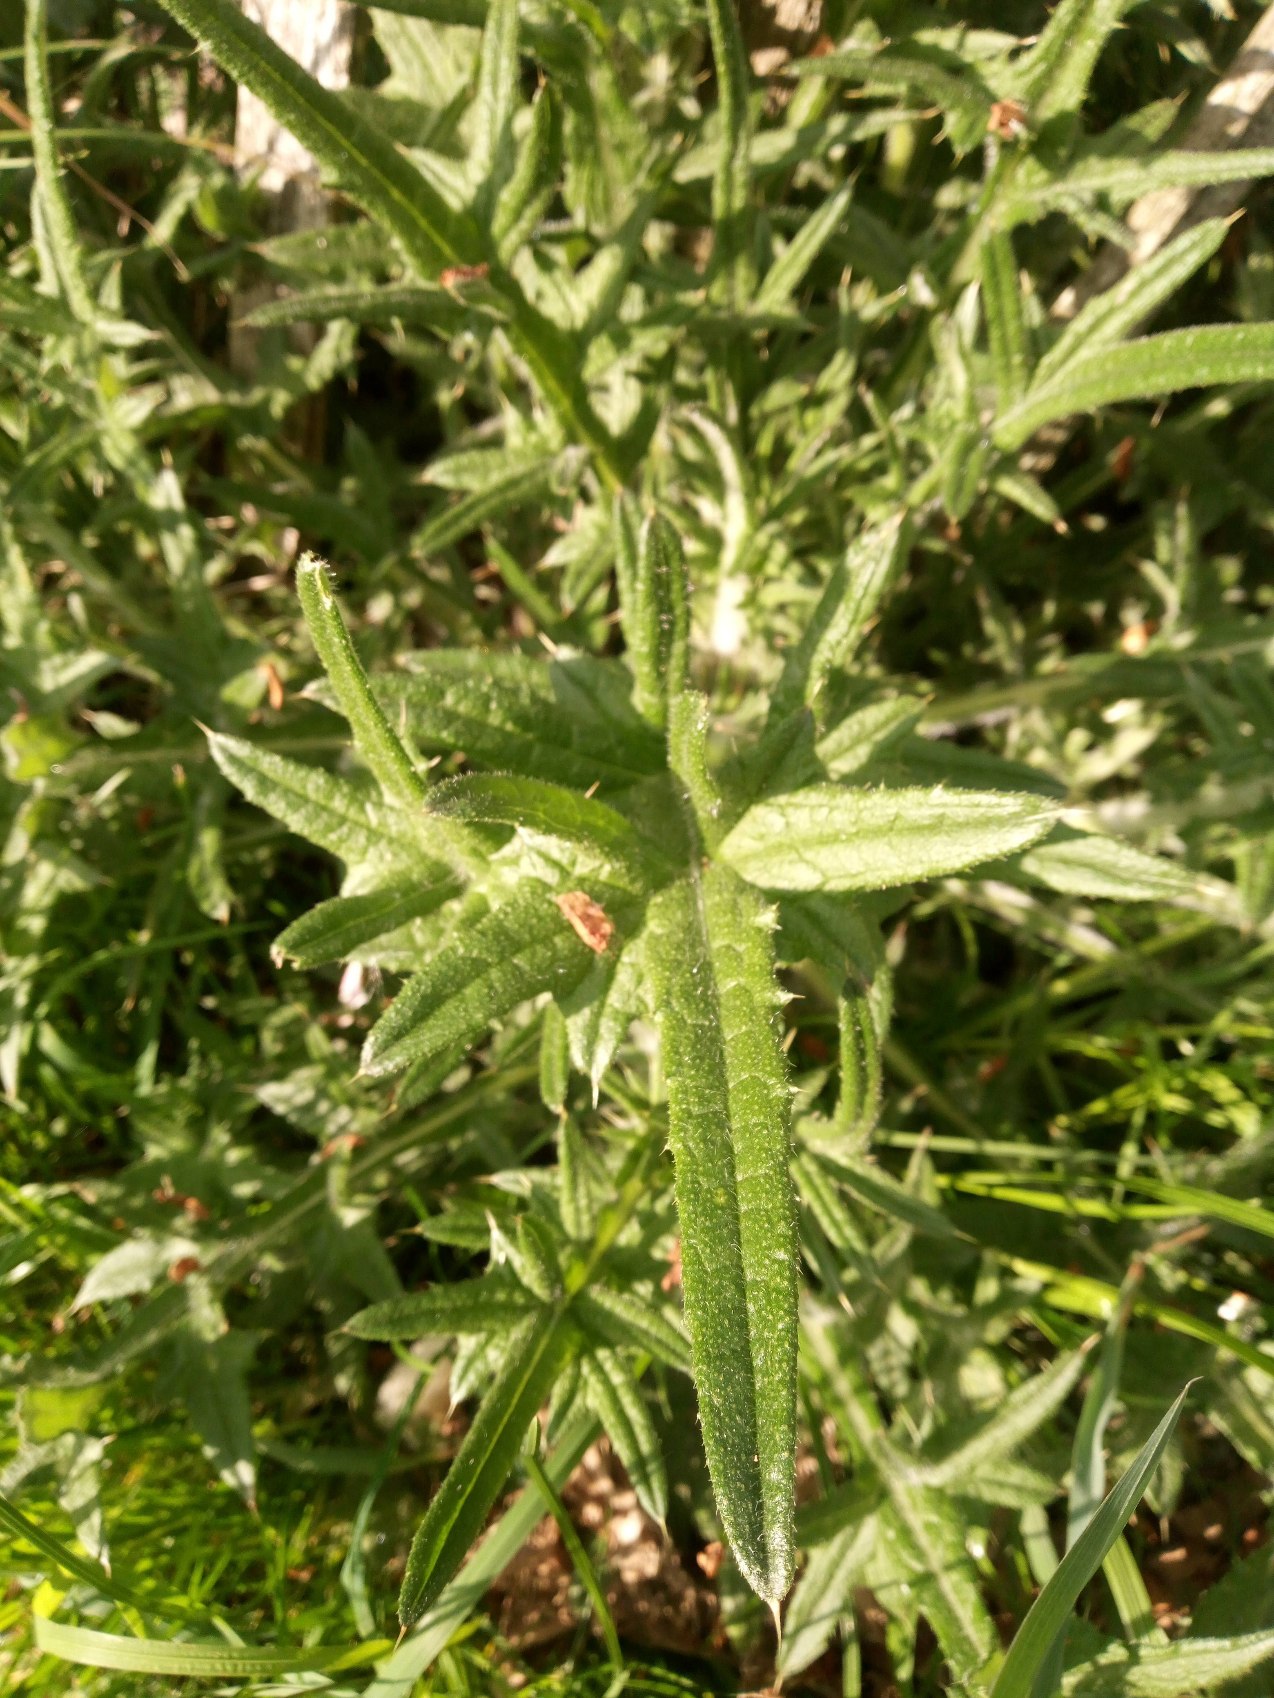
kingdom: Plantae
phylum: Tracheophyta
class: Magnoliopsida
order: Asterales
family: Asteraceae
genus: Cirsium
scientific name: Cirsium vulgare
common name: Horse-tidsel
